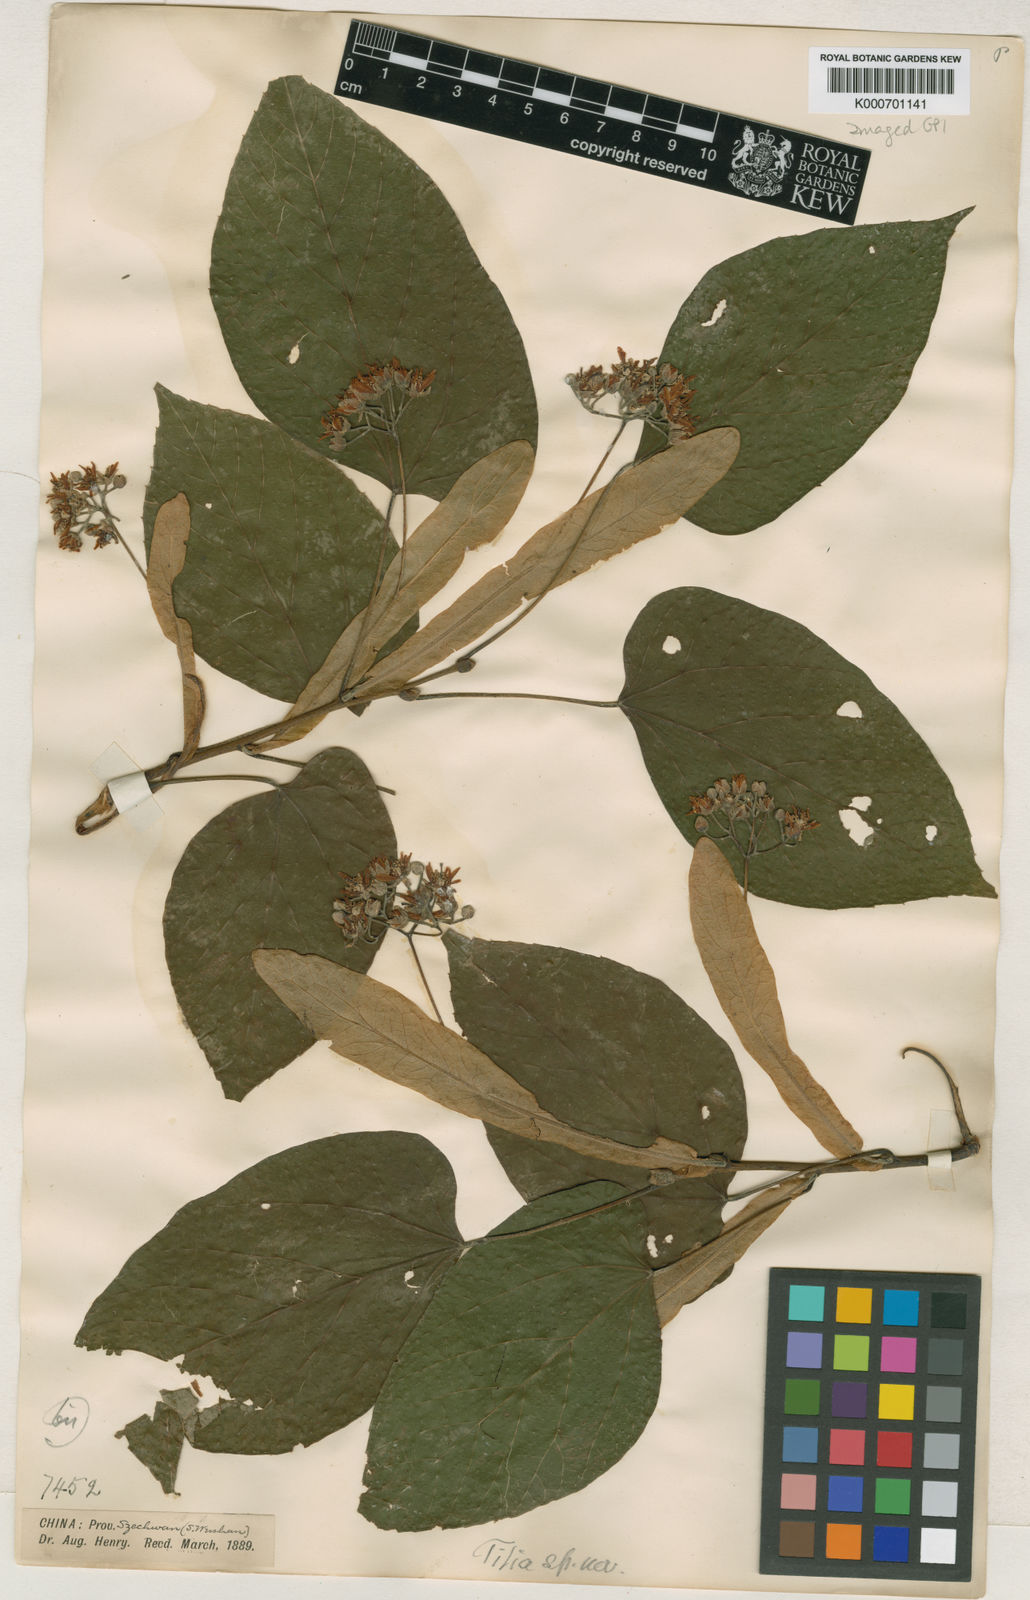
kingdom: Plantae
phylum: Tracheophyta
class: Magnoliopsida
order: Malvales
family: Malvaceae
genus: Tilia
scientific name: Tilia tuan
